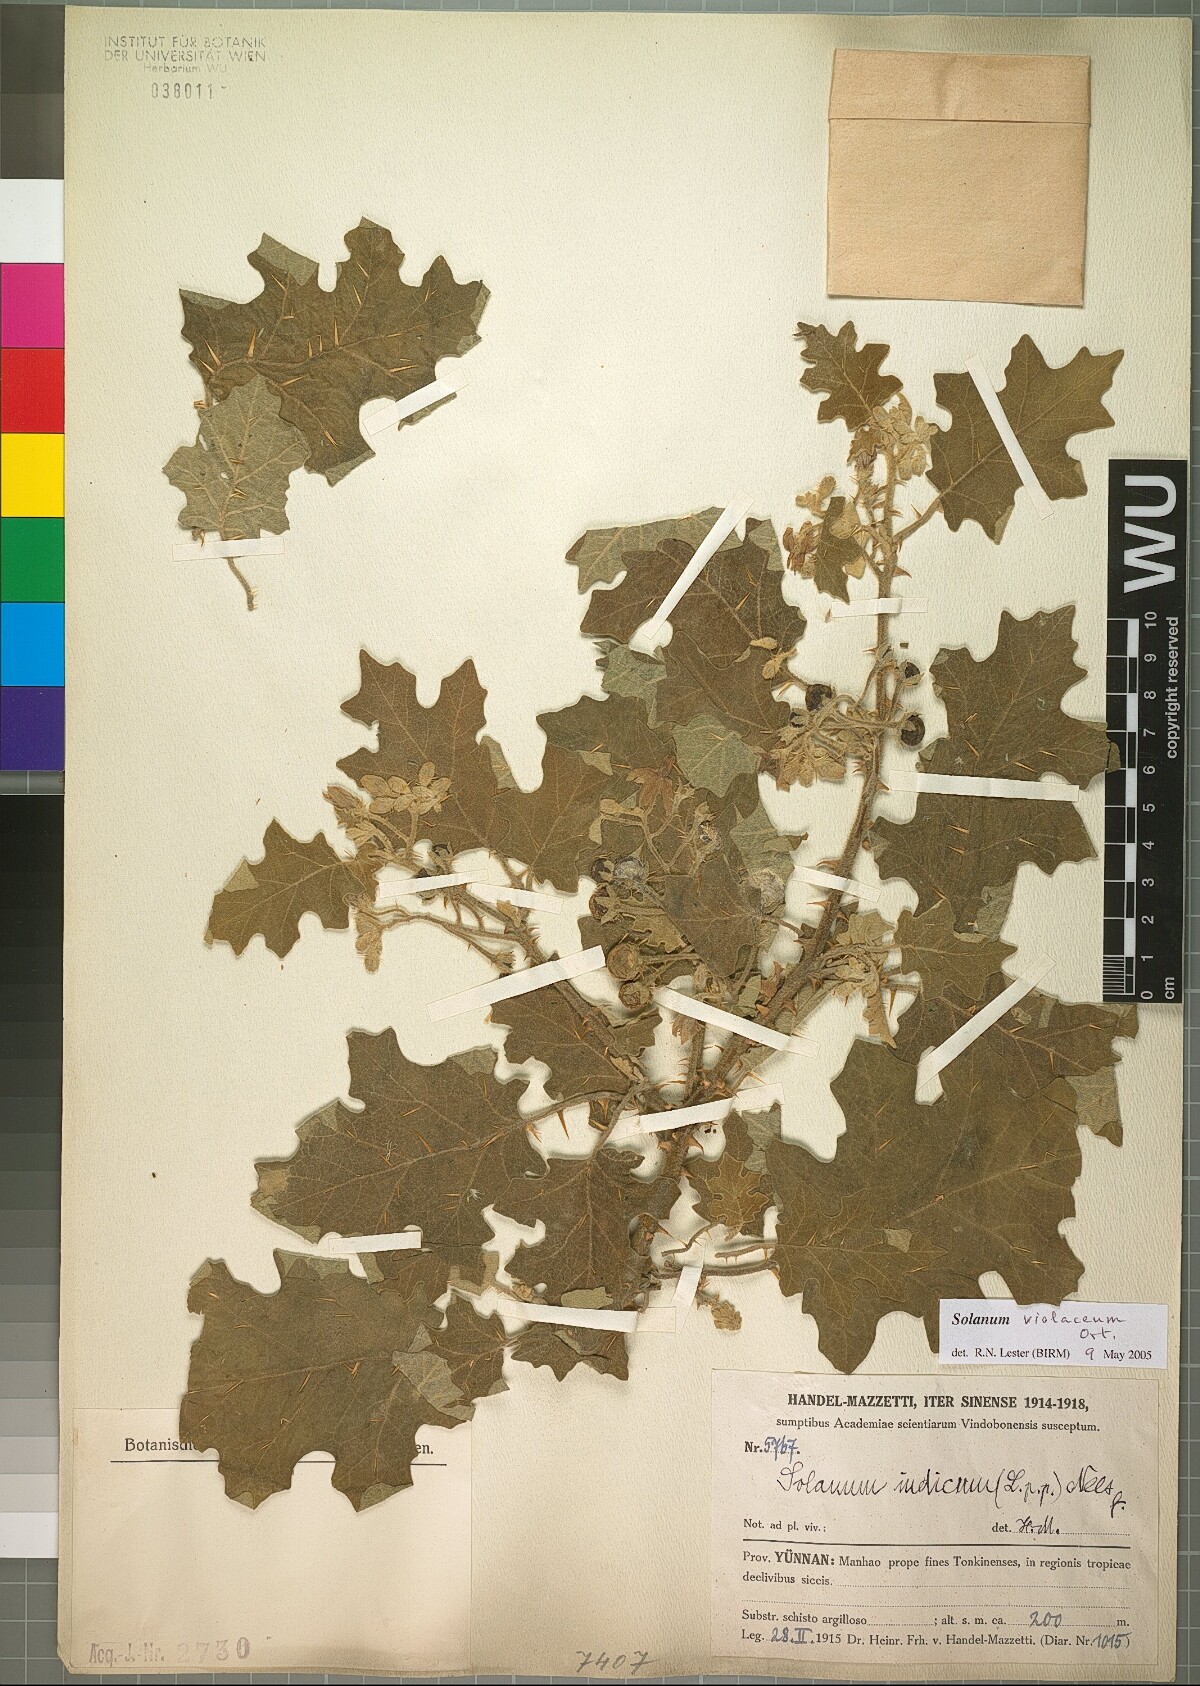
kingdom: Plantae
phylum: Tracheophyta
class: Magnoliopsida
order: Solanales
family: Solanaceae
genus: Solanum
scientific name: Solanum violaceum
